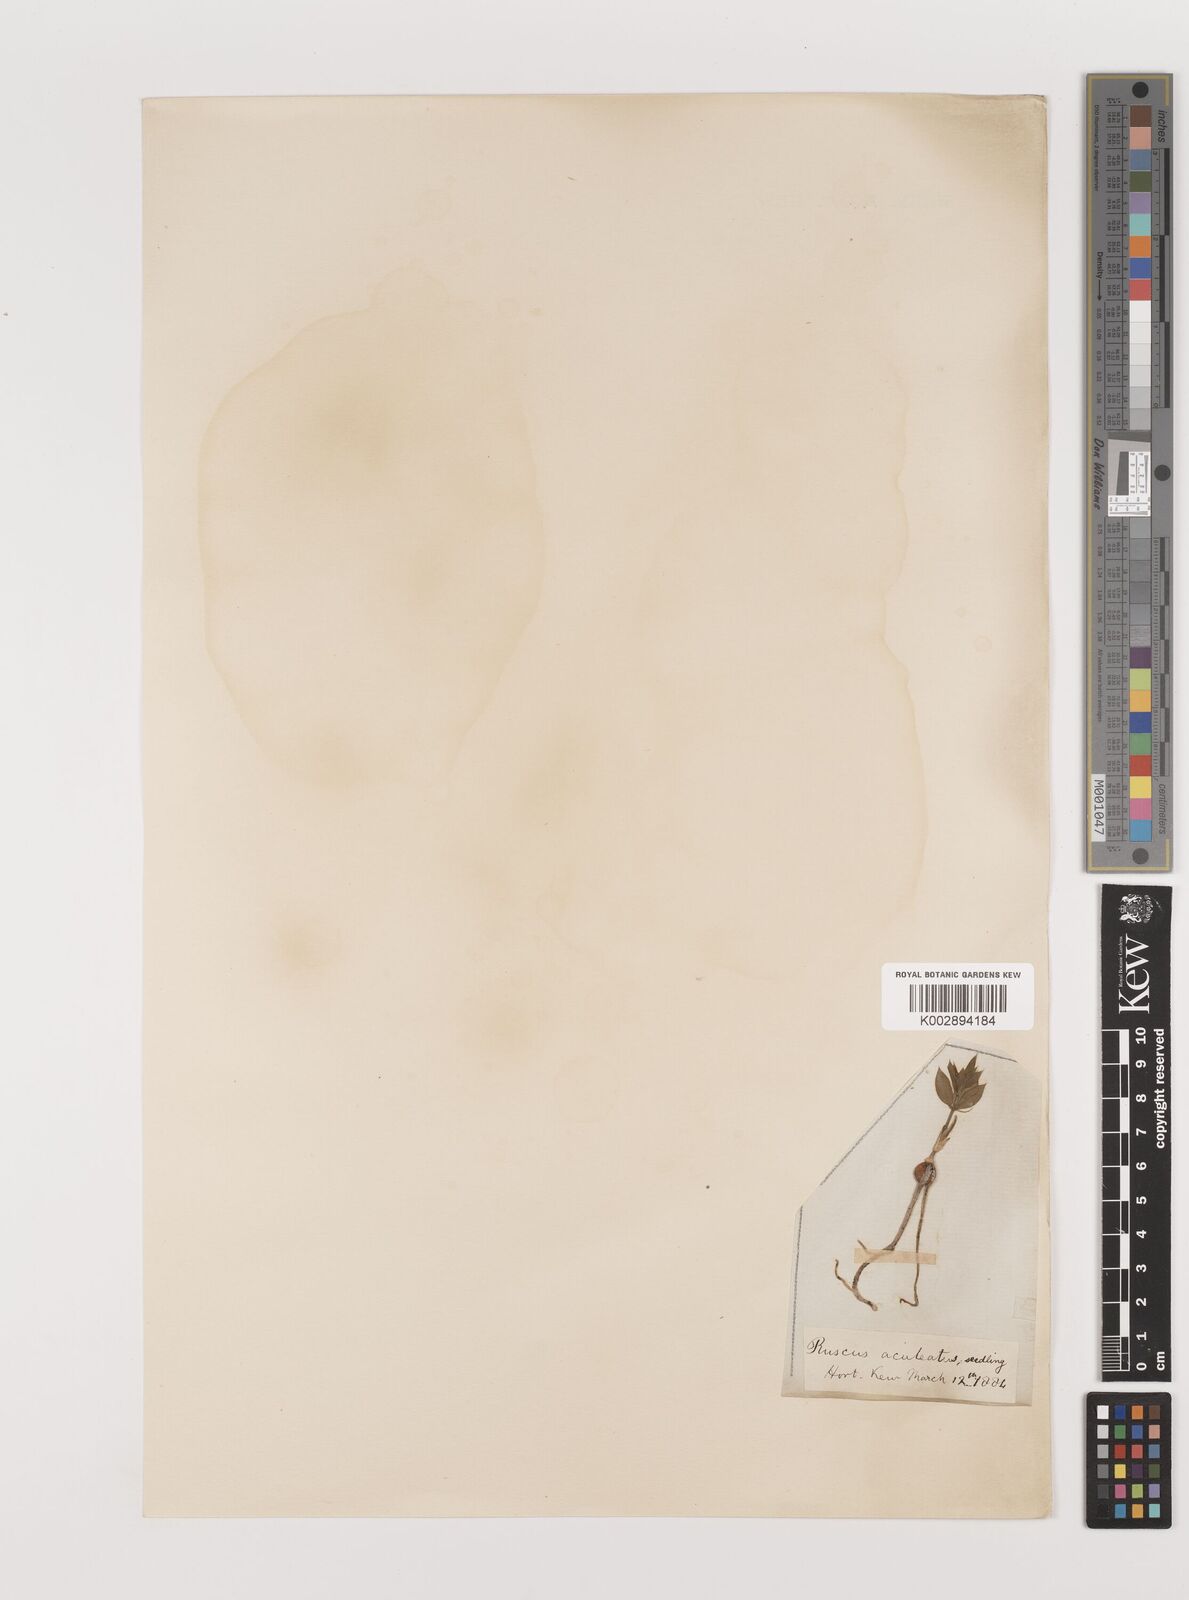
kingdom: Plantae
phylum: Tracheophyta
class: Liliopsida
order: Asparagales
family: Asparagaceae
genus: Ruscus
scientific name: Ruscus aculeatus
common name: Butcher's-broom
